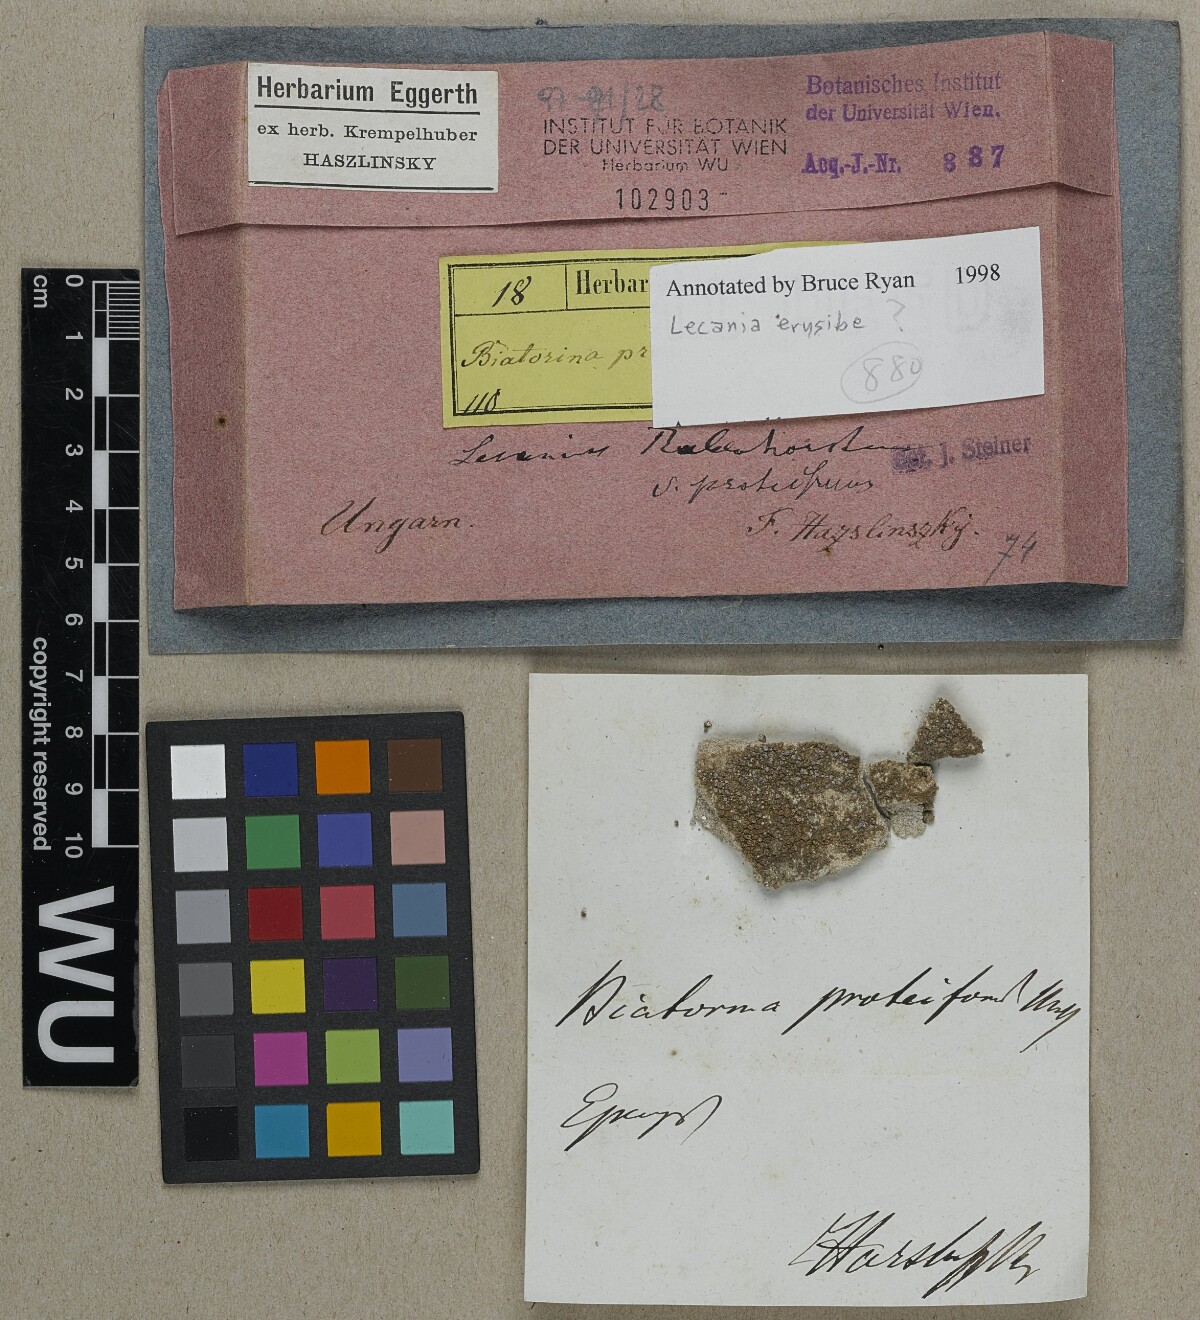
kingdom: Fungi
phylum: Ascomycota
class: Lecanoromycetes
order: Lecanorales
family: Ramalinaceae
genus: Lecania
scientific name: Lecania erysibe
